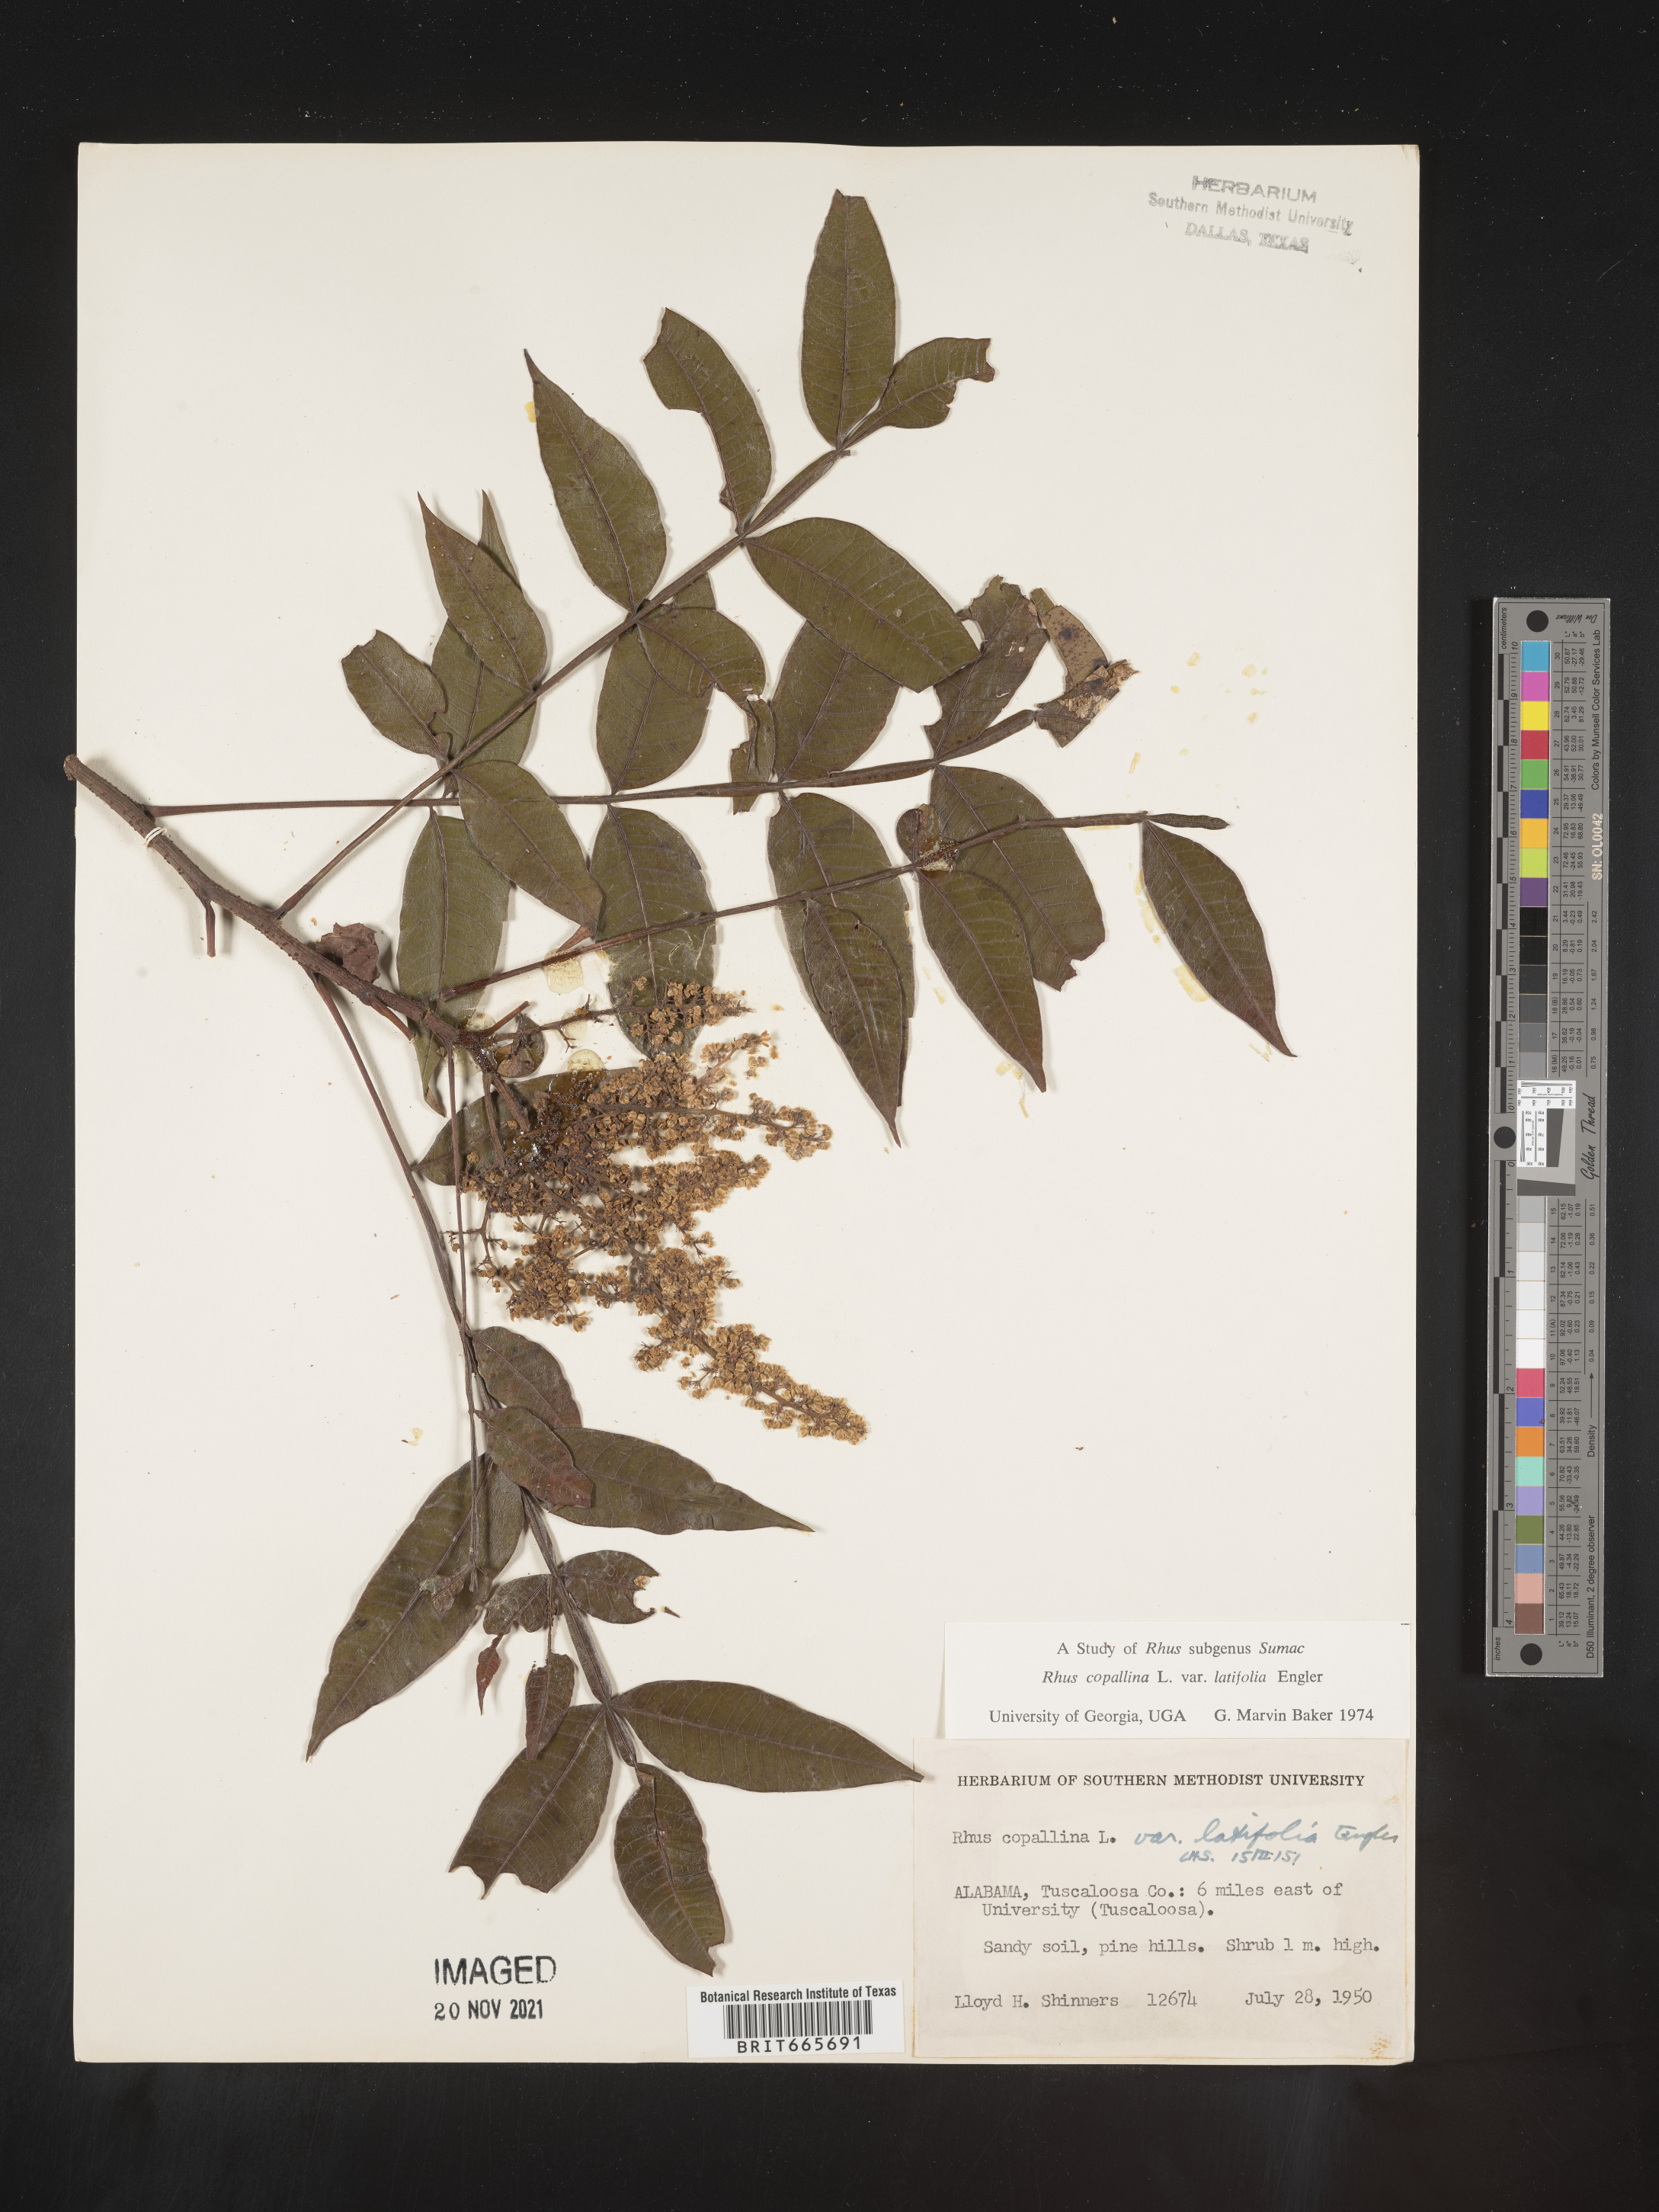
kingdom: Plantae
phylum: Tracheophyta
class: Magnoliopsida
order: Sapindales
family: Anacardiaceae
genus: Rhus
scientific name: Rhus copallina
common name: Shining sumac
